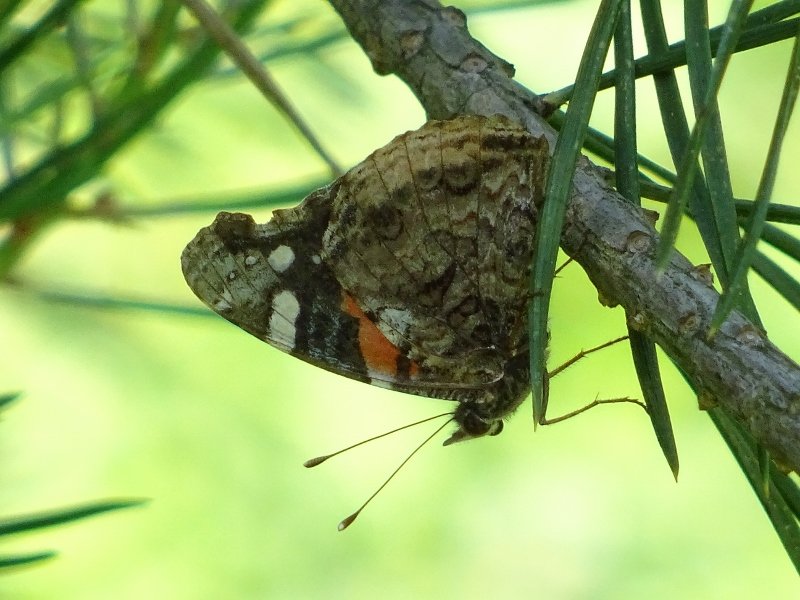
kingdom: Animalia
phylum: Arthropoda
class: Insecta
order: Lepidoptera
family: Nymphalidae
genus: Vanessa
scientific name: Vanessa atalanta
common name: Red Admiral
